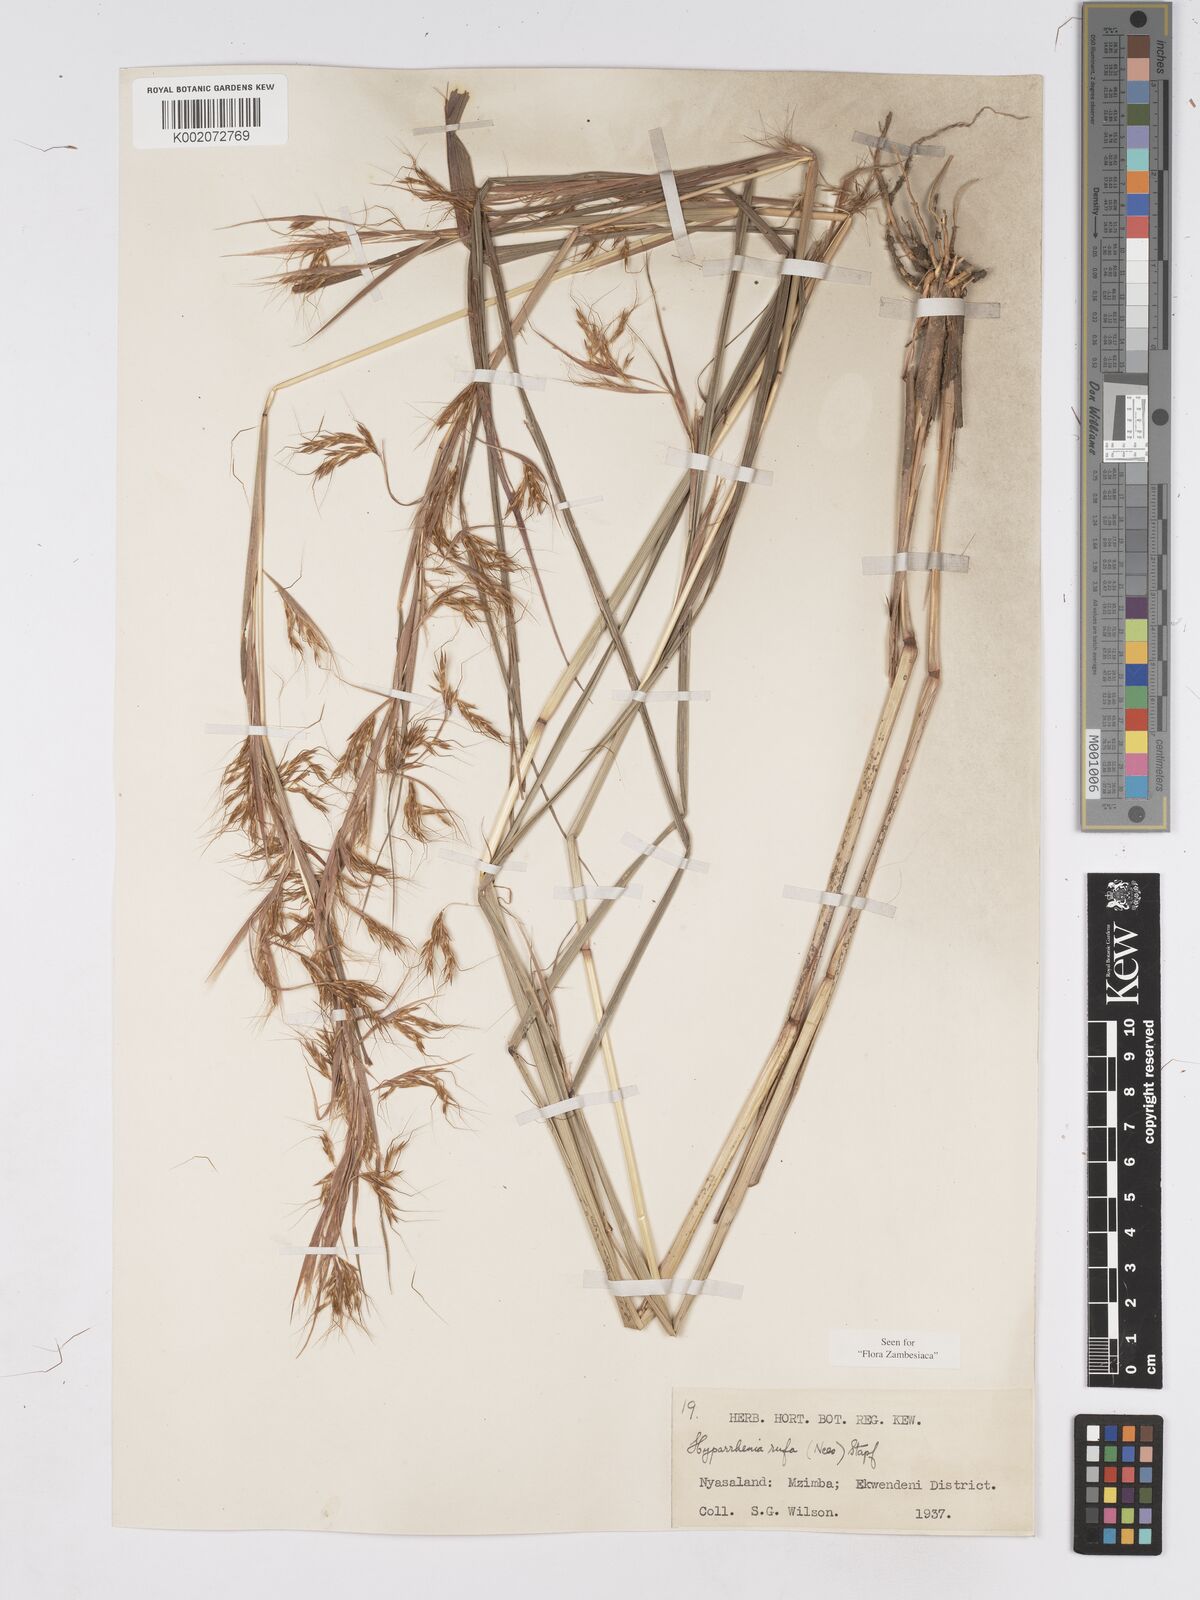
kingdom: Plantae
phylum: Tracheophyta
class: Liliopsida
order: Poales
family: Poaceae
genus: Hyparrhenia
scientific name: Hyparrhenia rufa
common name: Jaraguagrass
